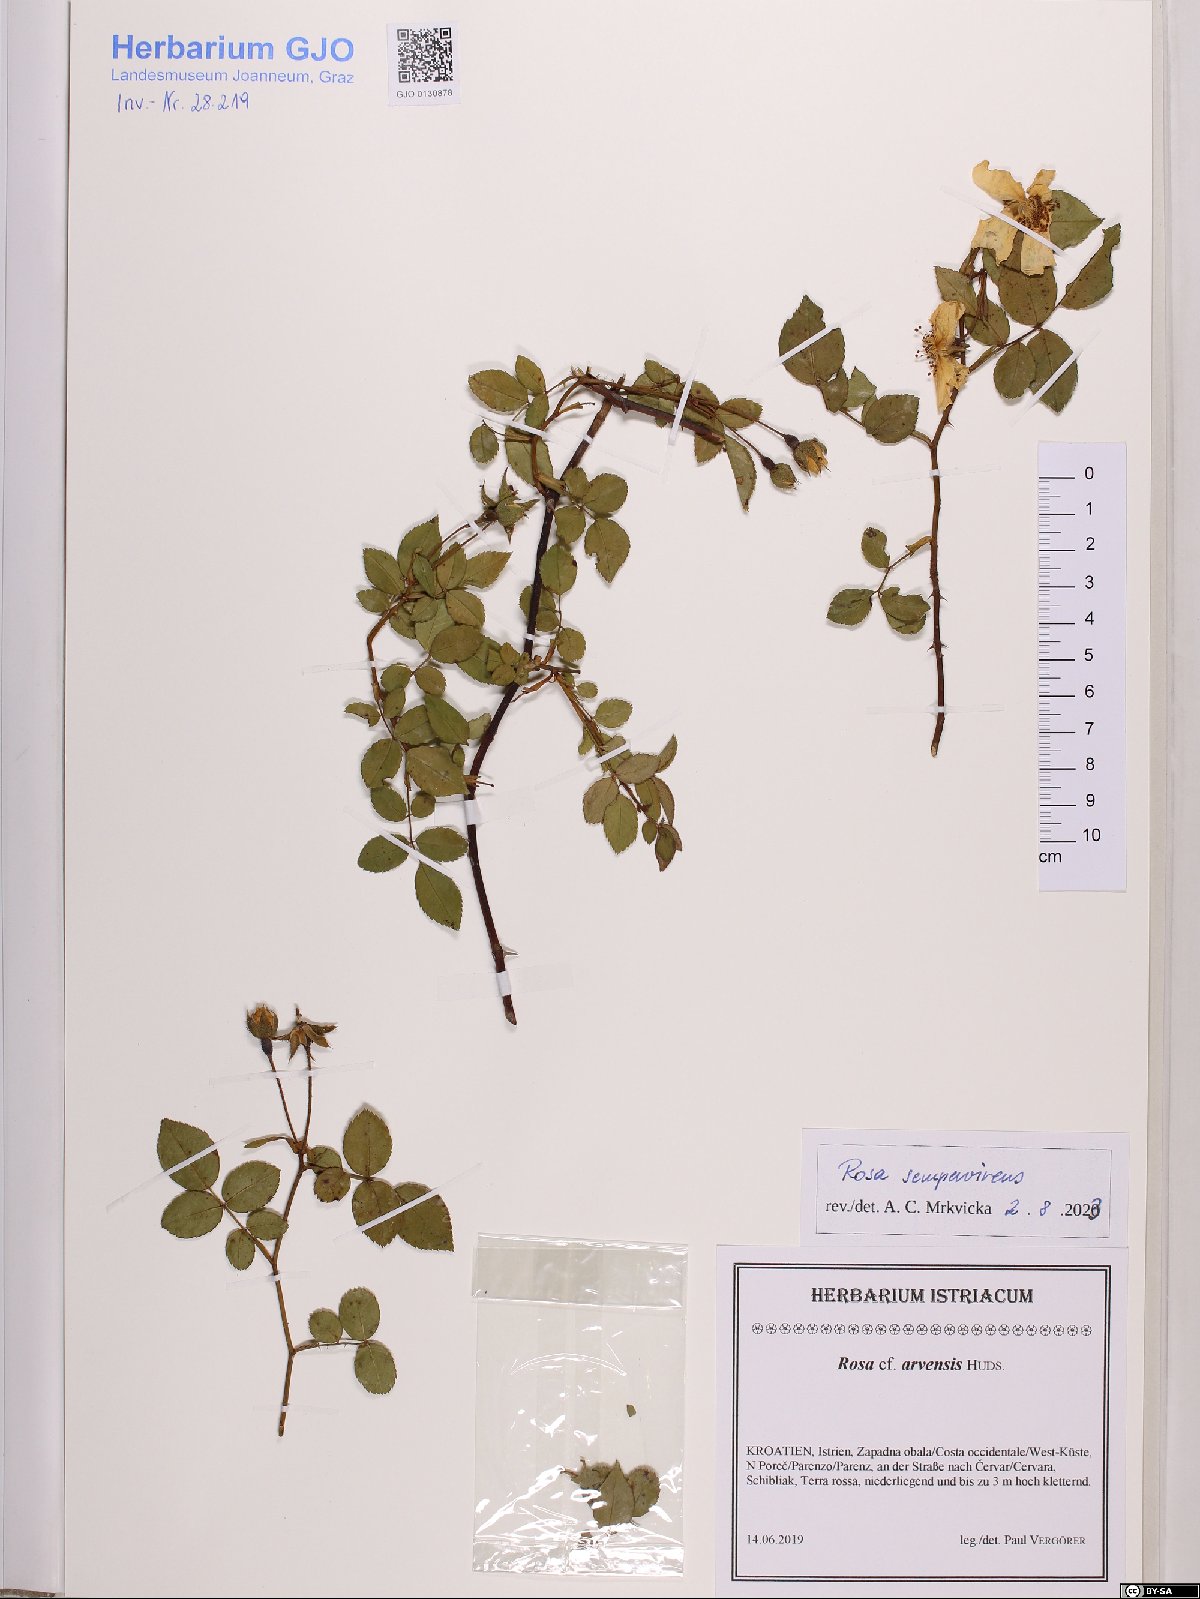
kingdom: Plantae
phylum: Tracheophyta
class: Magnoliopsida
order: Rosales
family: Rosaceae
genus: Rosa
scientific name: Rosa sempervirens
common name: Evergreen rose
